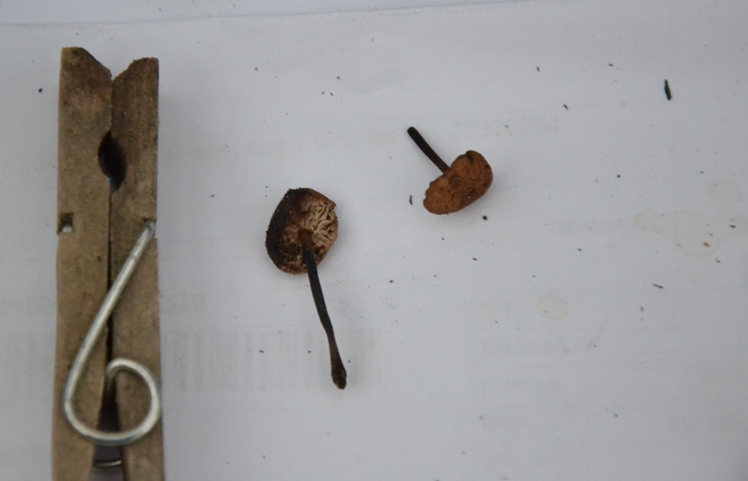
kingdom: Fungi
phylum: Basidiomycota
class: Agaricomycetes
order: Agaricales
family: Omphalotaceae
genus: Mycetinis
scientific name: Mycetinis alliaceus
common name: stor løghat
